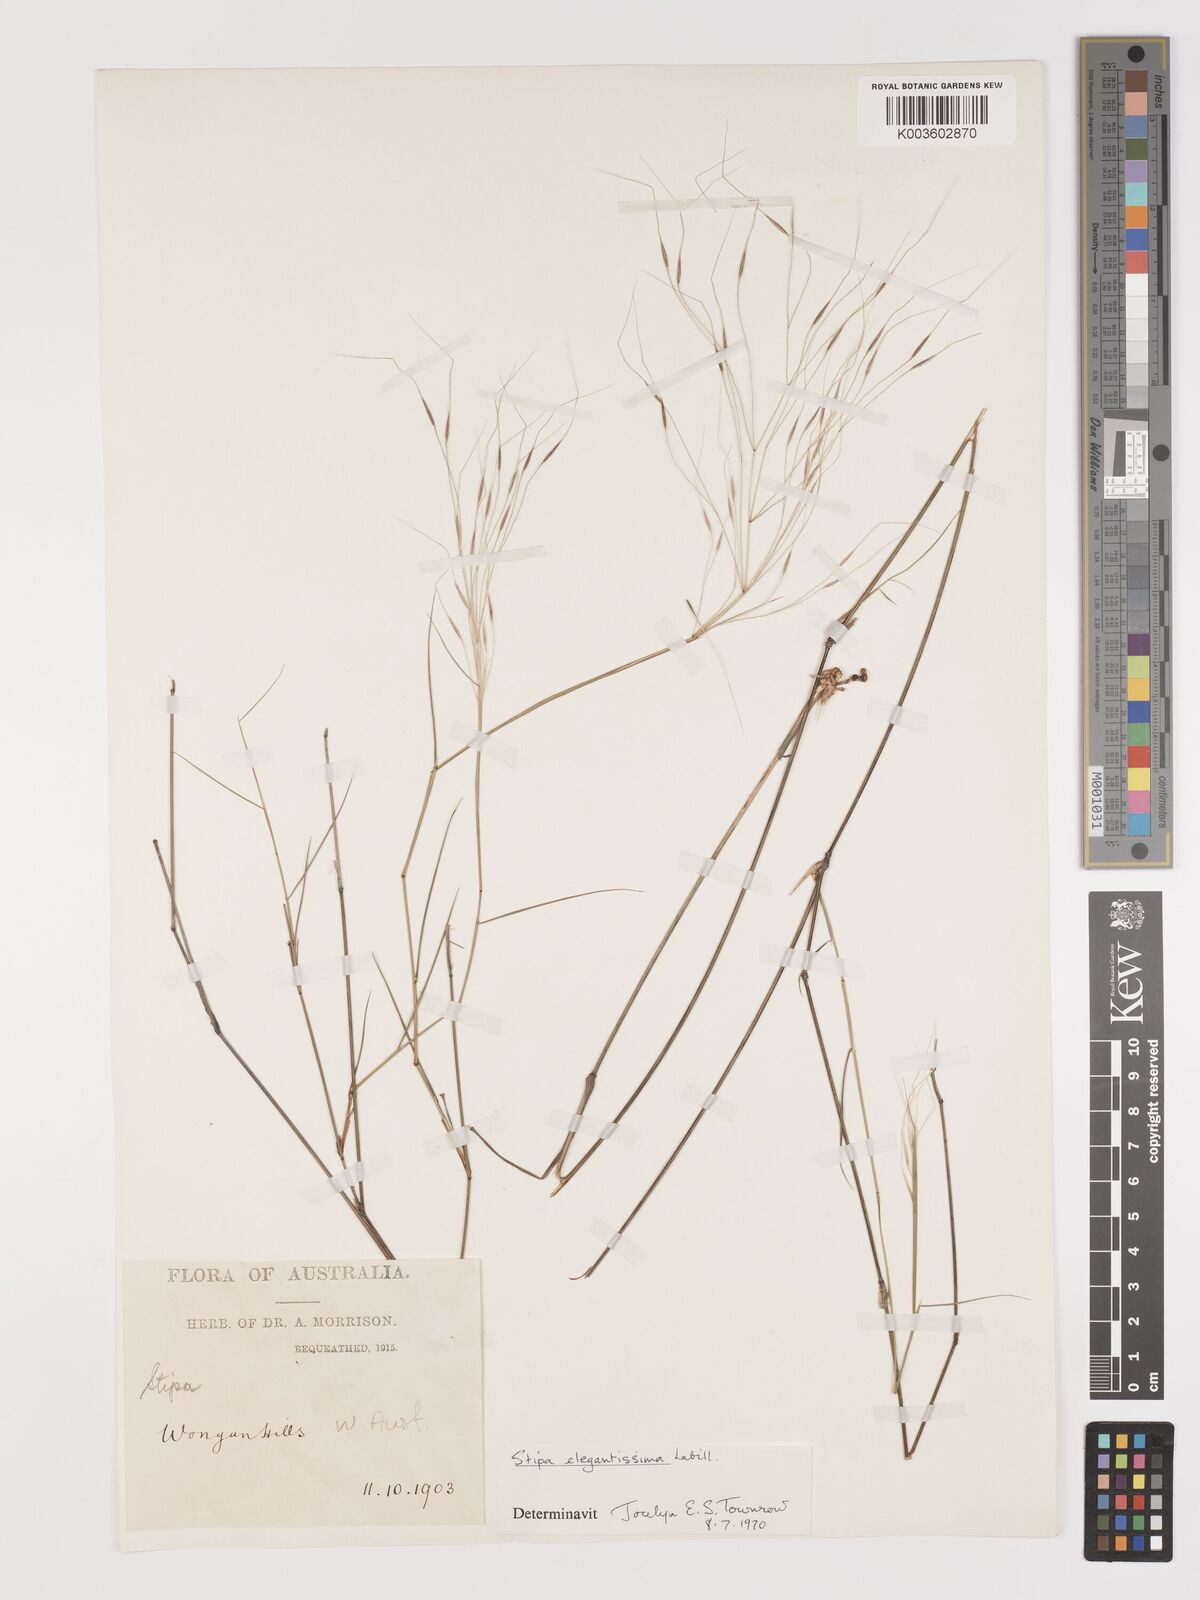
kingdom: Plantae
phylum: Tracheophyta
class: Liliopsida
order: Poales
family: Poaceae
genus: Austrostipa
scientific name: Austrostipa elegantissima
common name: Feather spear grass
